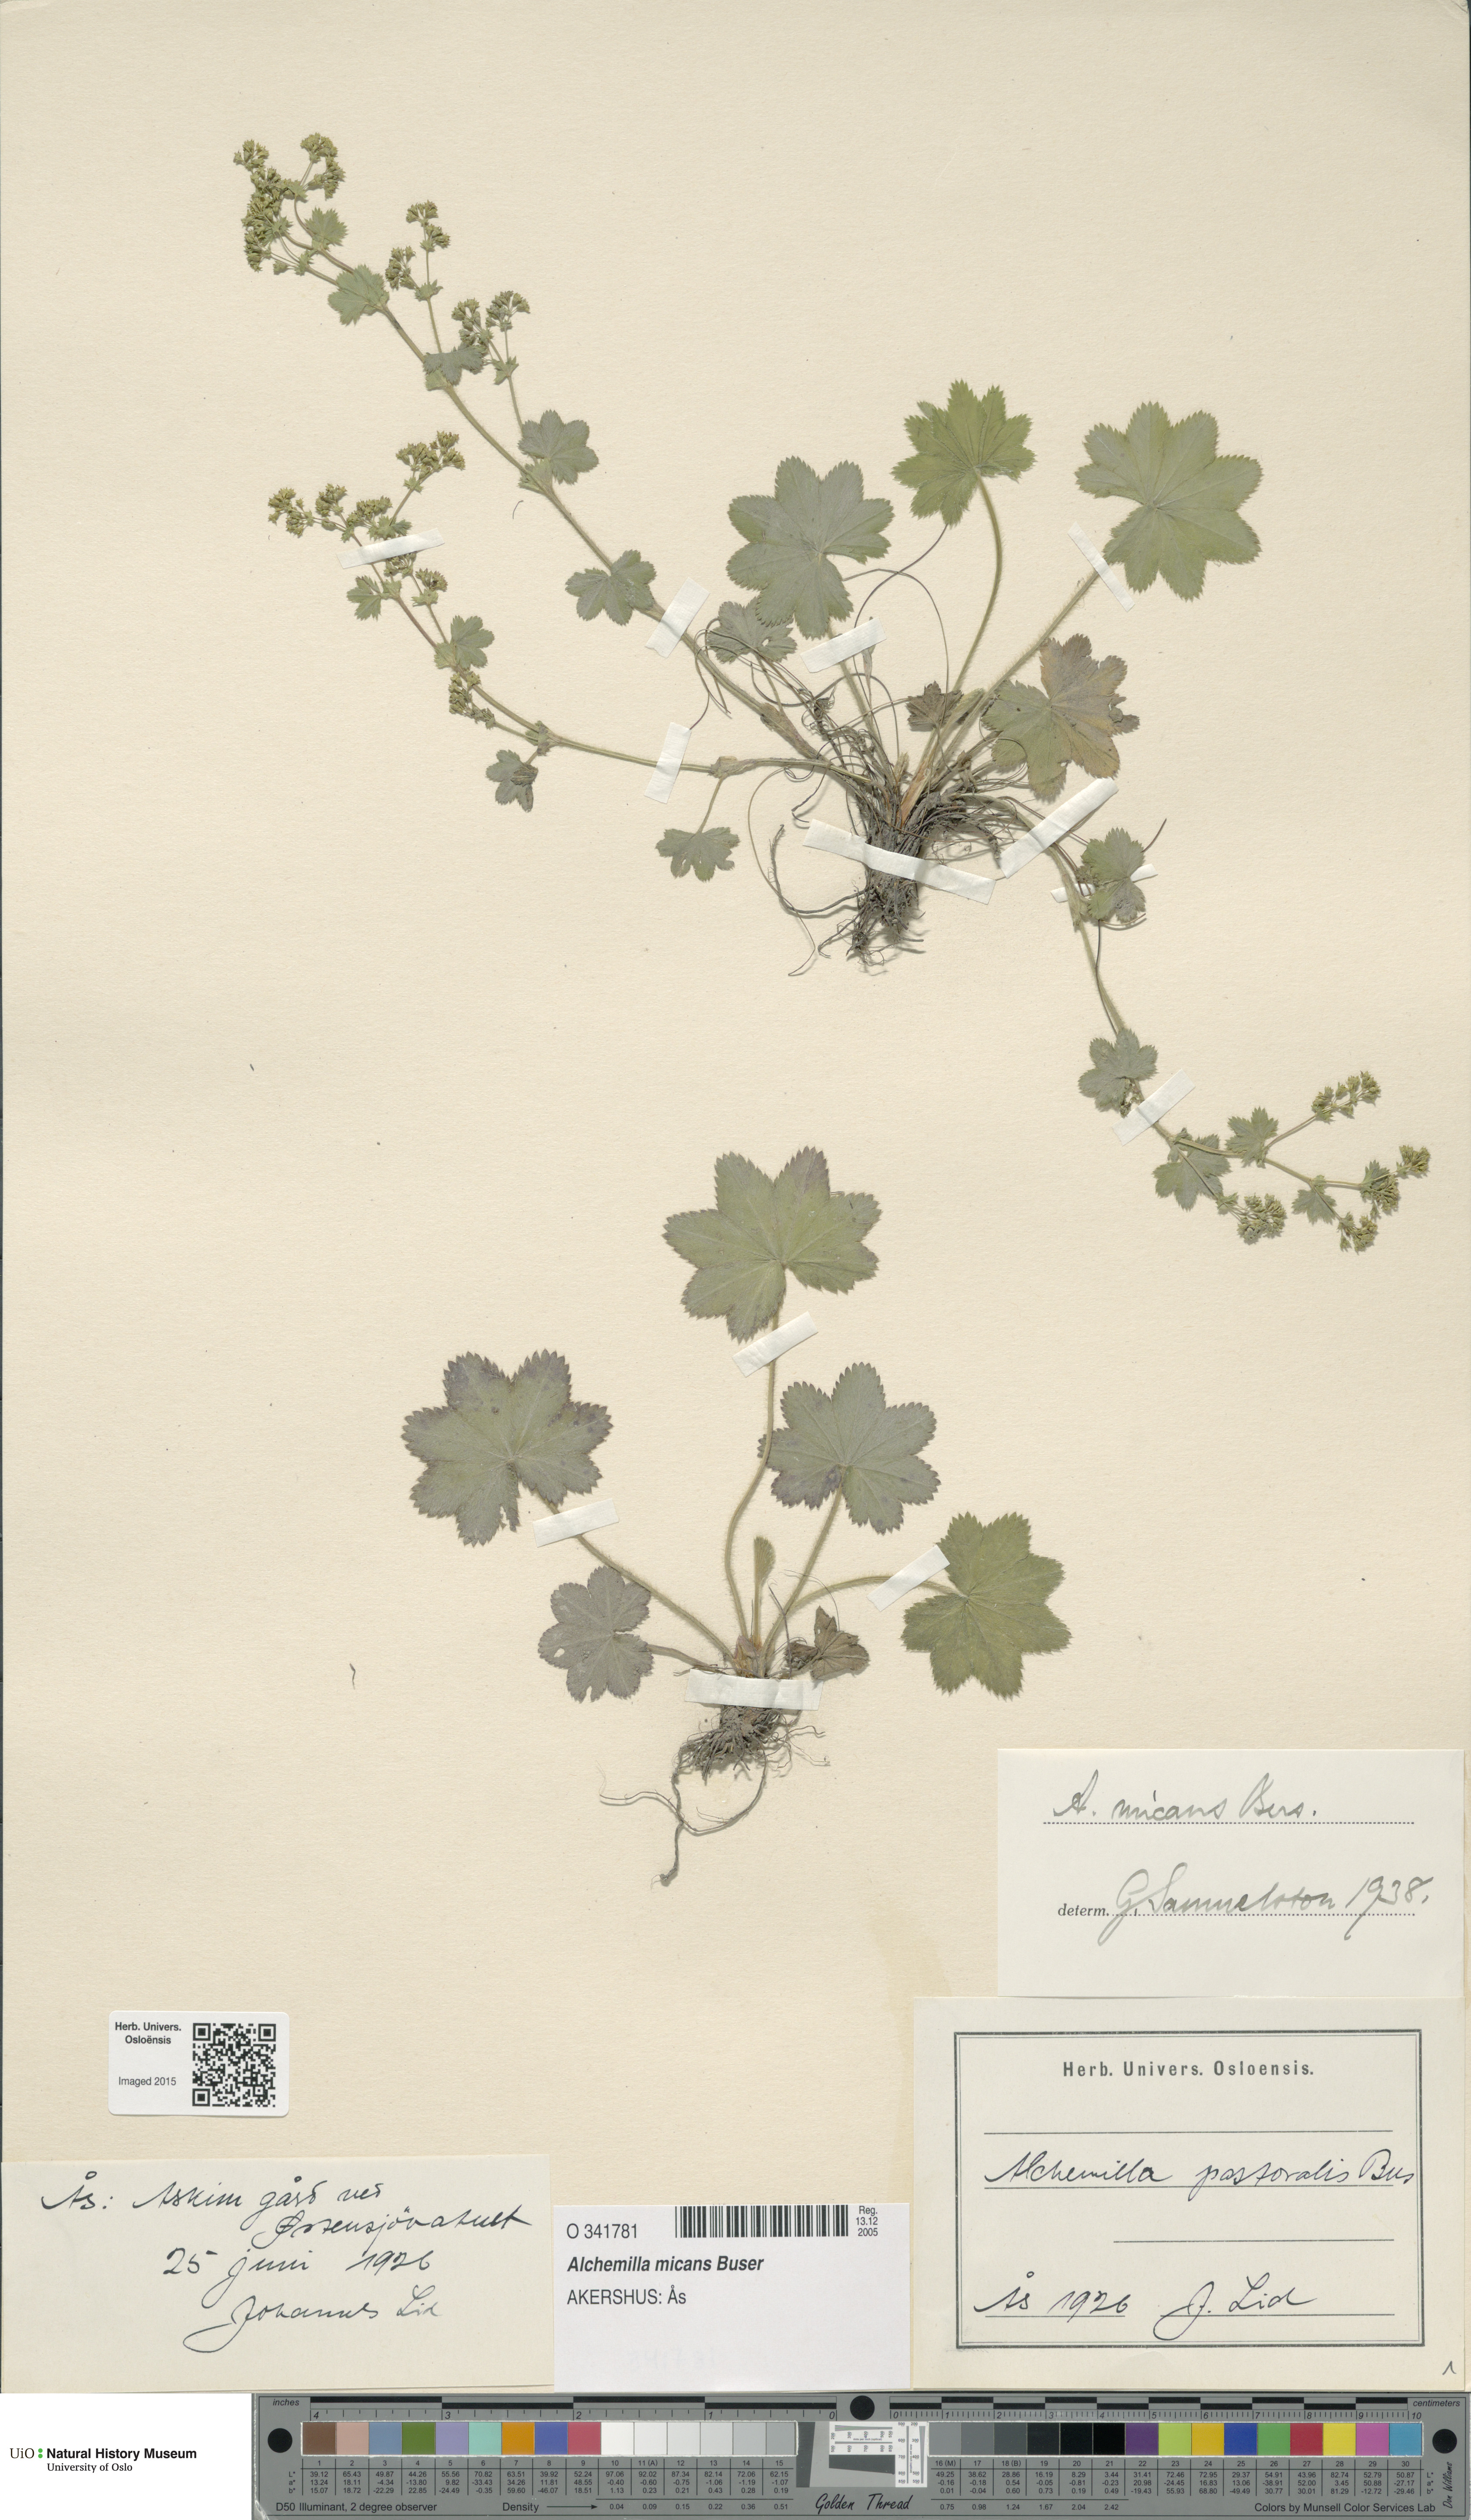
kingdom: Plantae
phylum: Tracheophyta
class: Magnoliopsida
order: Rosales
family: Rosaceae
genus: Alchemilla
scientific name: Alchemilla micans
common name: Gleaming lady's mantle
